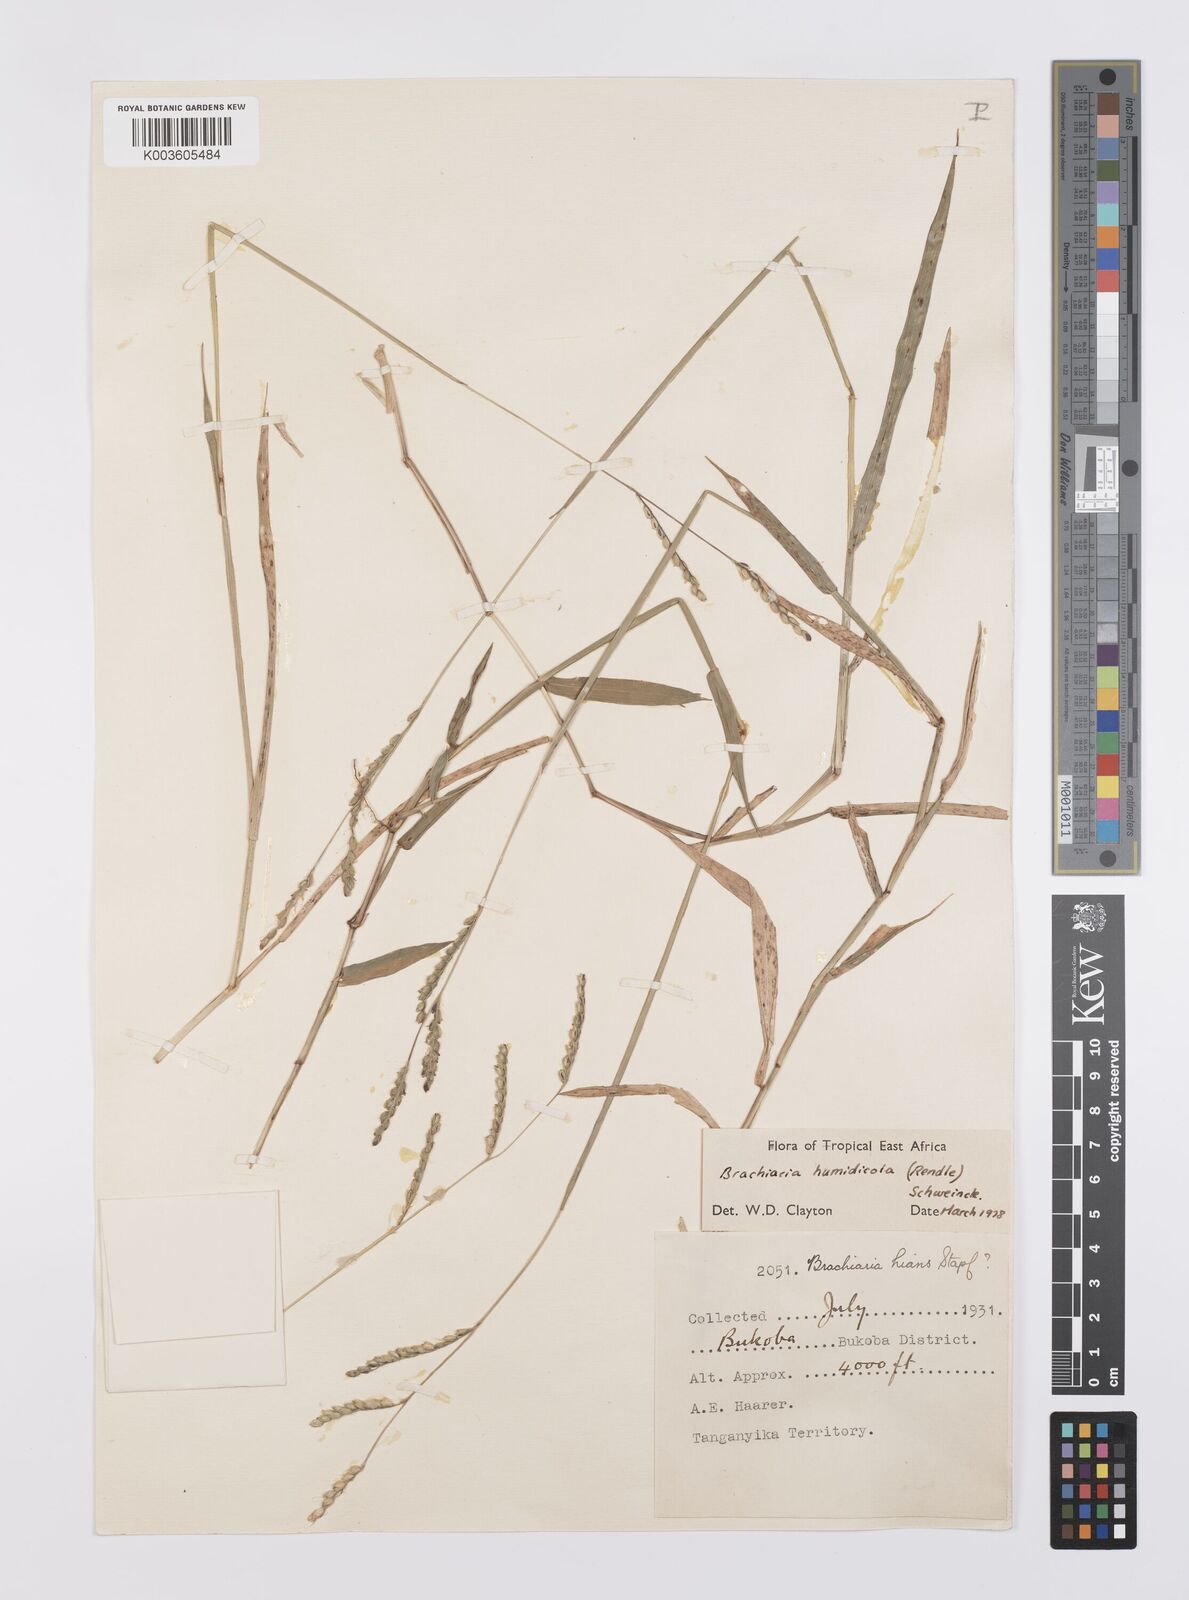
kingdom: Plantae
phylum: Tracheophyta
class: Liliopsida
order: Poales
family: Poaceae
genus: Urochloa
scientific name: Urochloa dictyoneura
